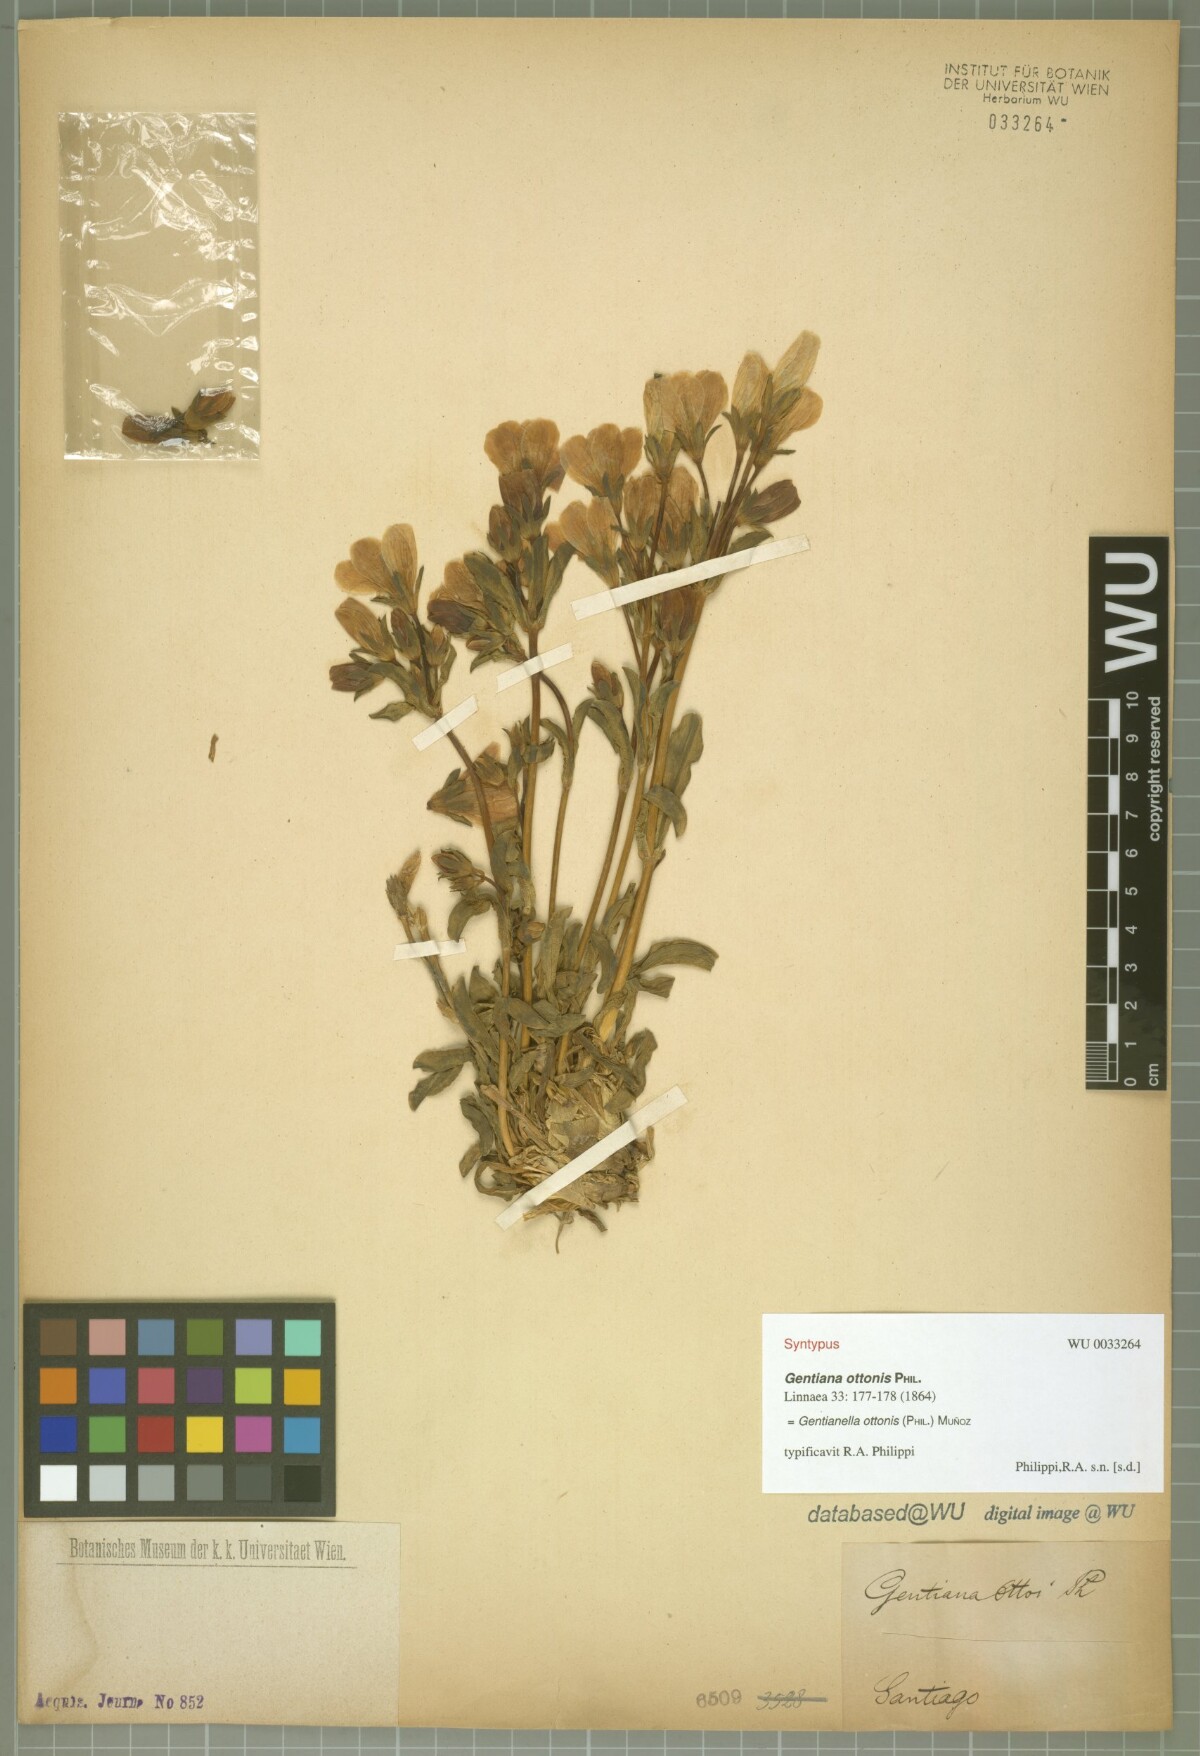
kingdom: Plantae
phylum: Tracheophyta
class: Magnoliopsida
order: Gentianales
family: Gentianaceae
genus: Gentianella
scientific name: Gentianella ottonis
